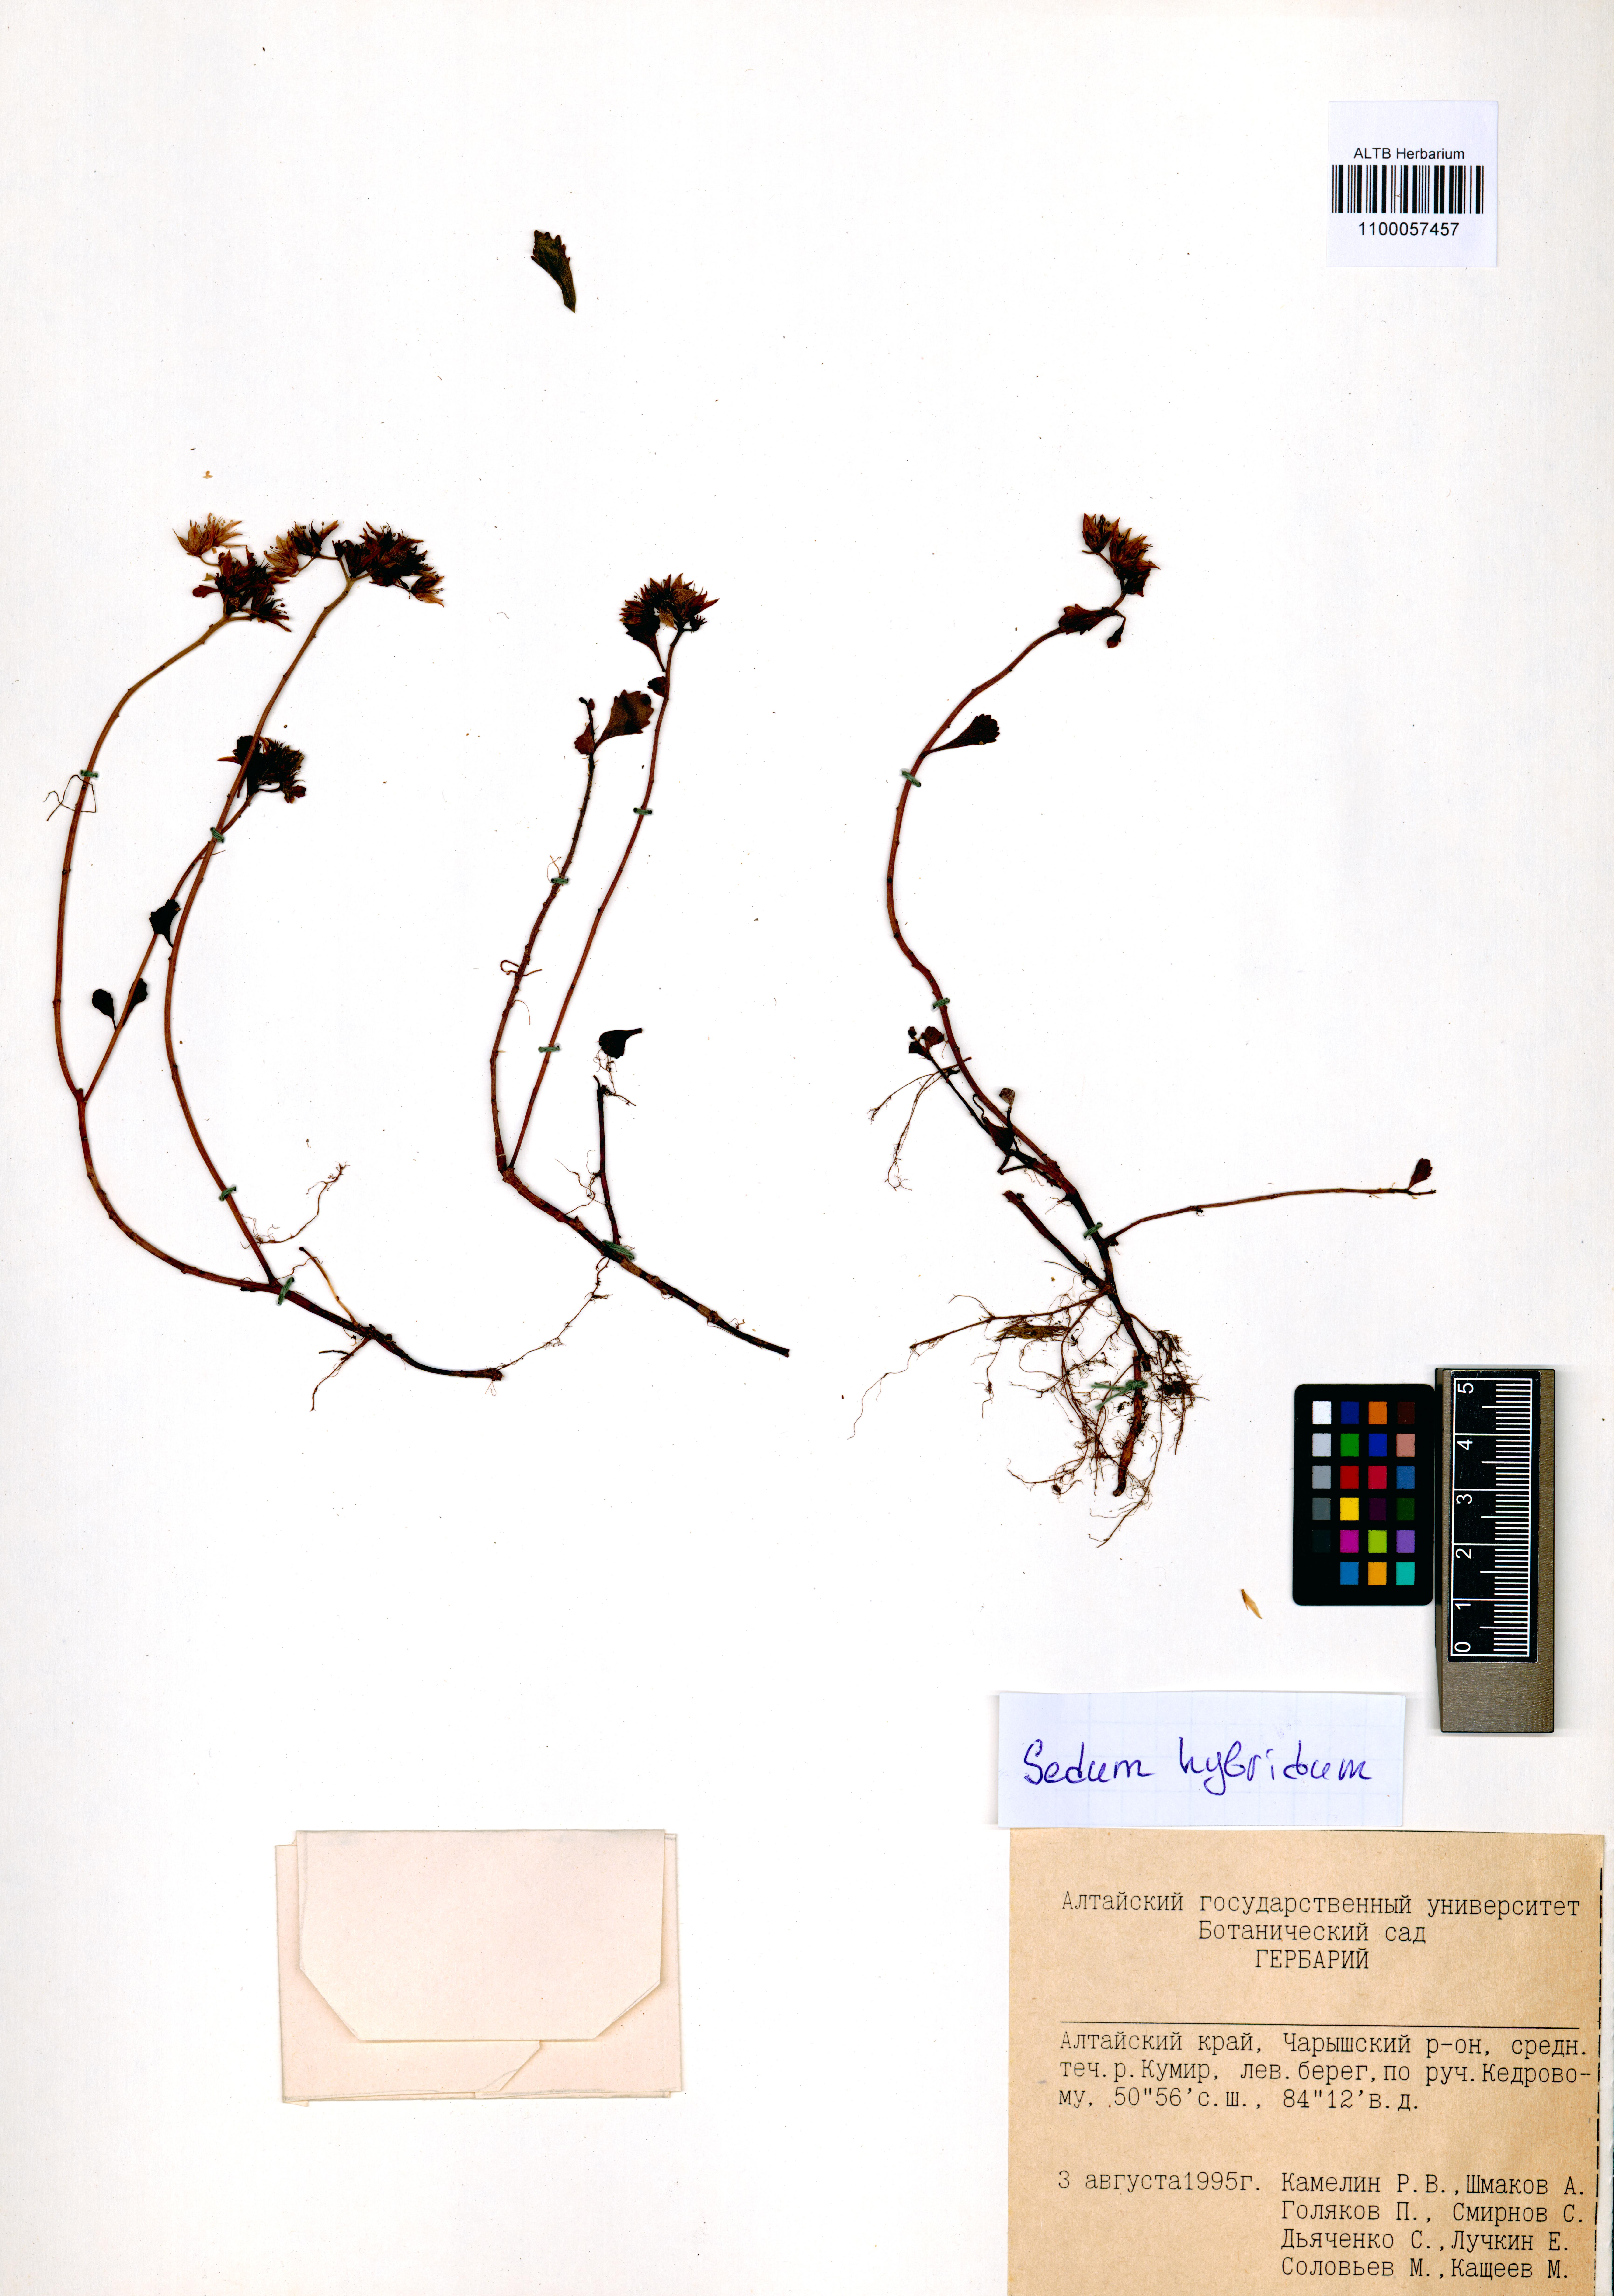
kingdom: Plantae
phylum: Tracheophyta
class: Magnoliopsida
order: Saxifragales
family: Crassulaceae
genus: Phedimus
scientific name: Phedimus hybridus
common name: Hybrid stonecrop
